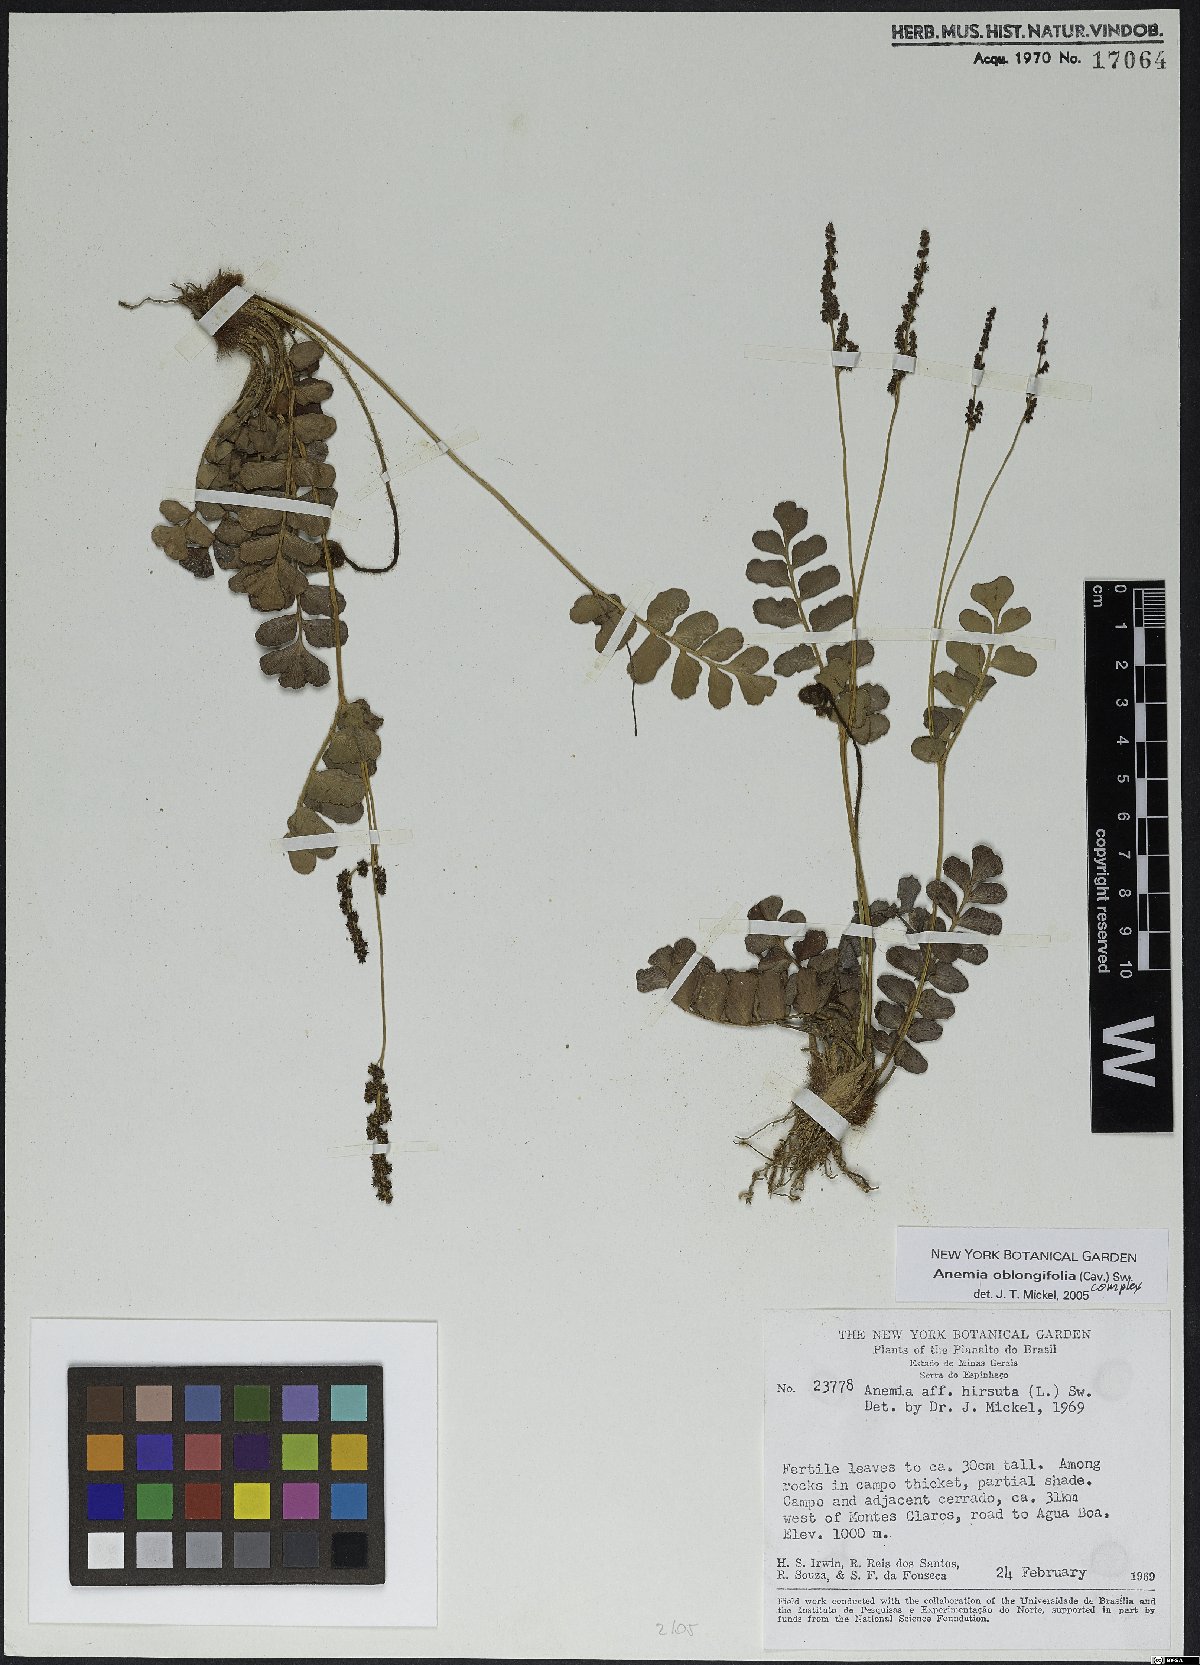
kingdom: Plantae
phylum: Tracheophyta
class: Polypodiopsida
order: Schizaeales
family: Anemiaceae
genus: Anemia
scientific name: Anemia oblongifolia
